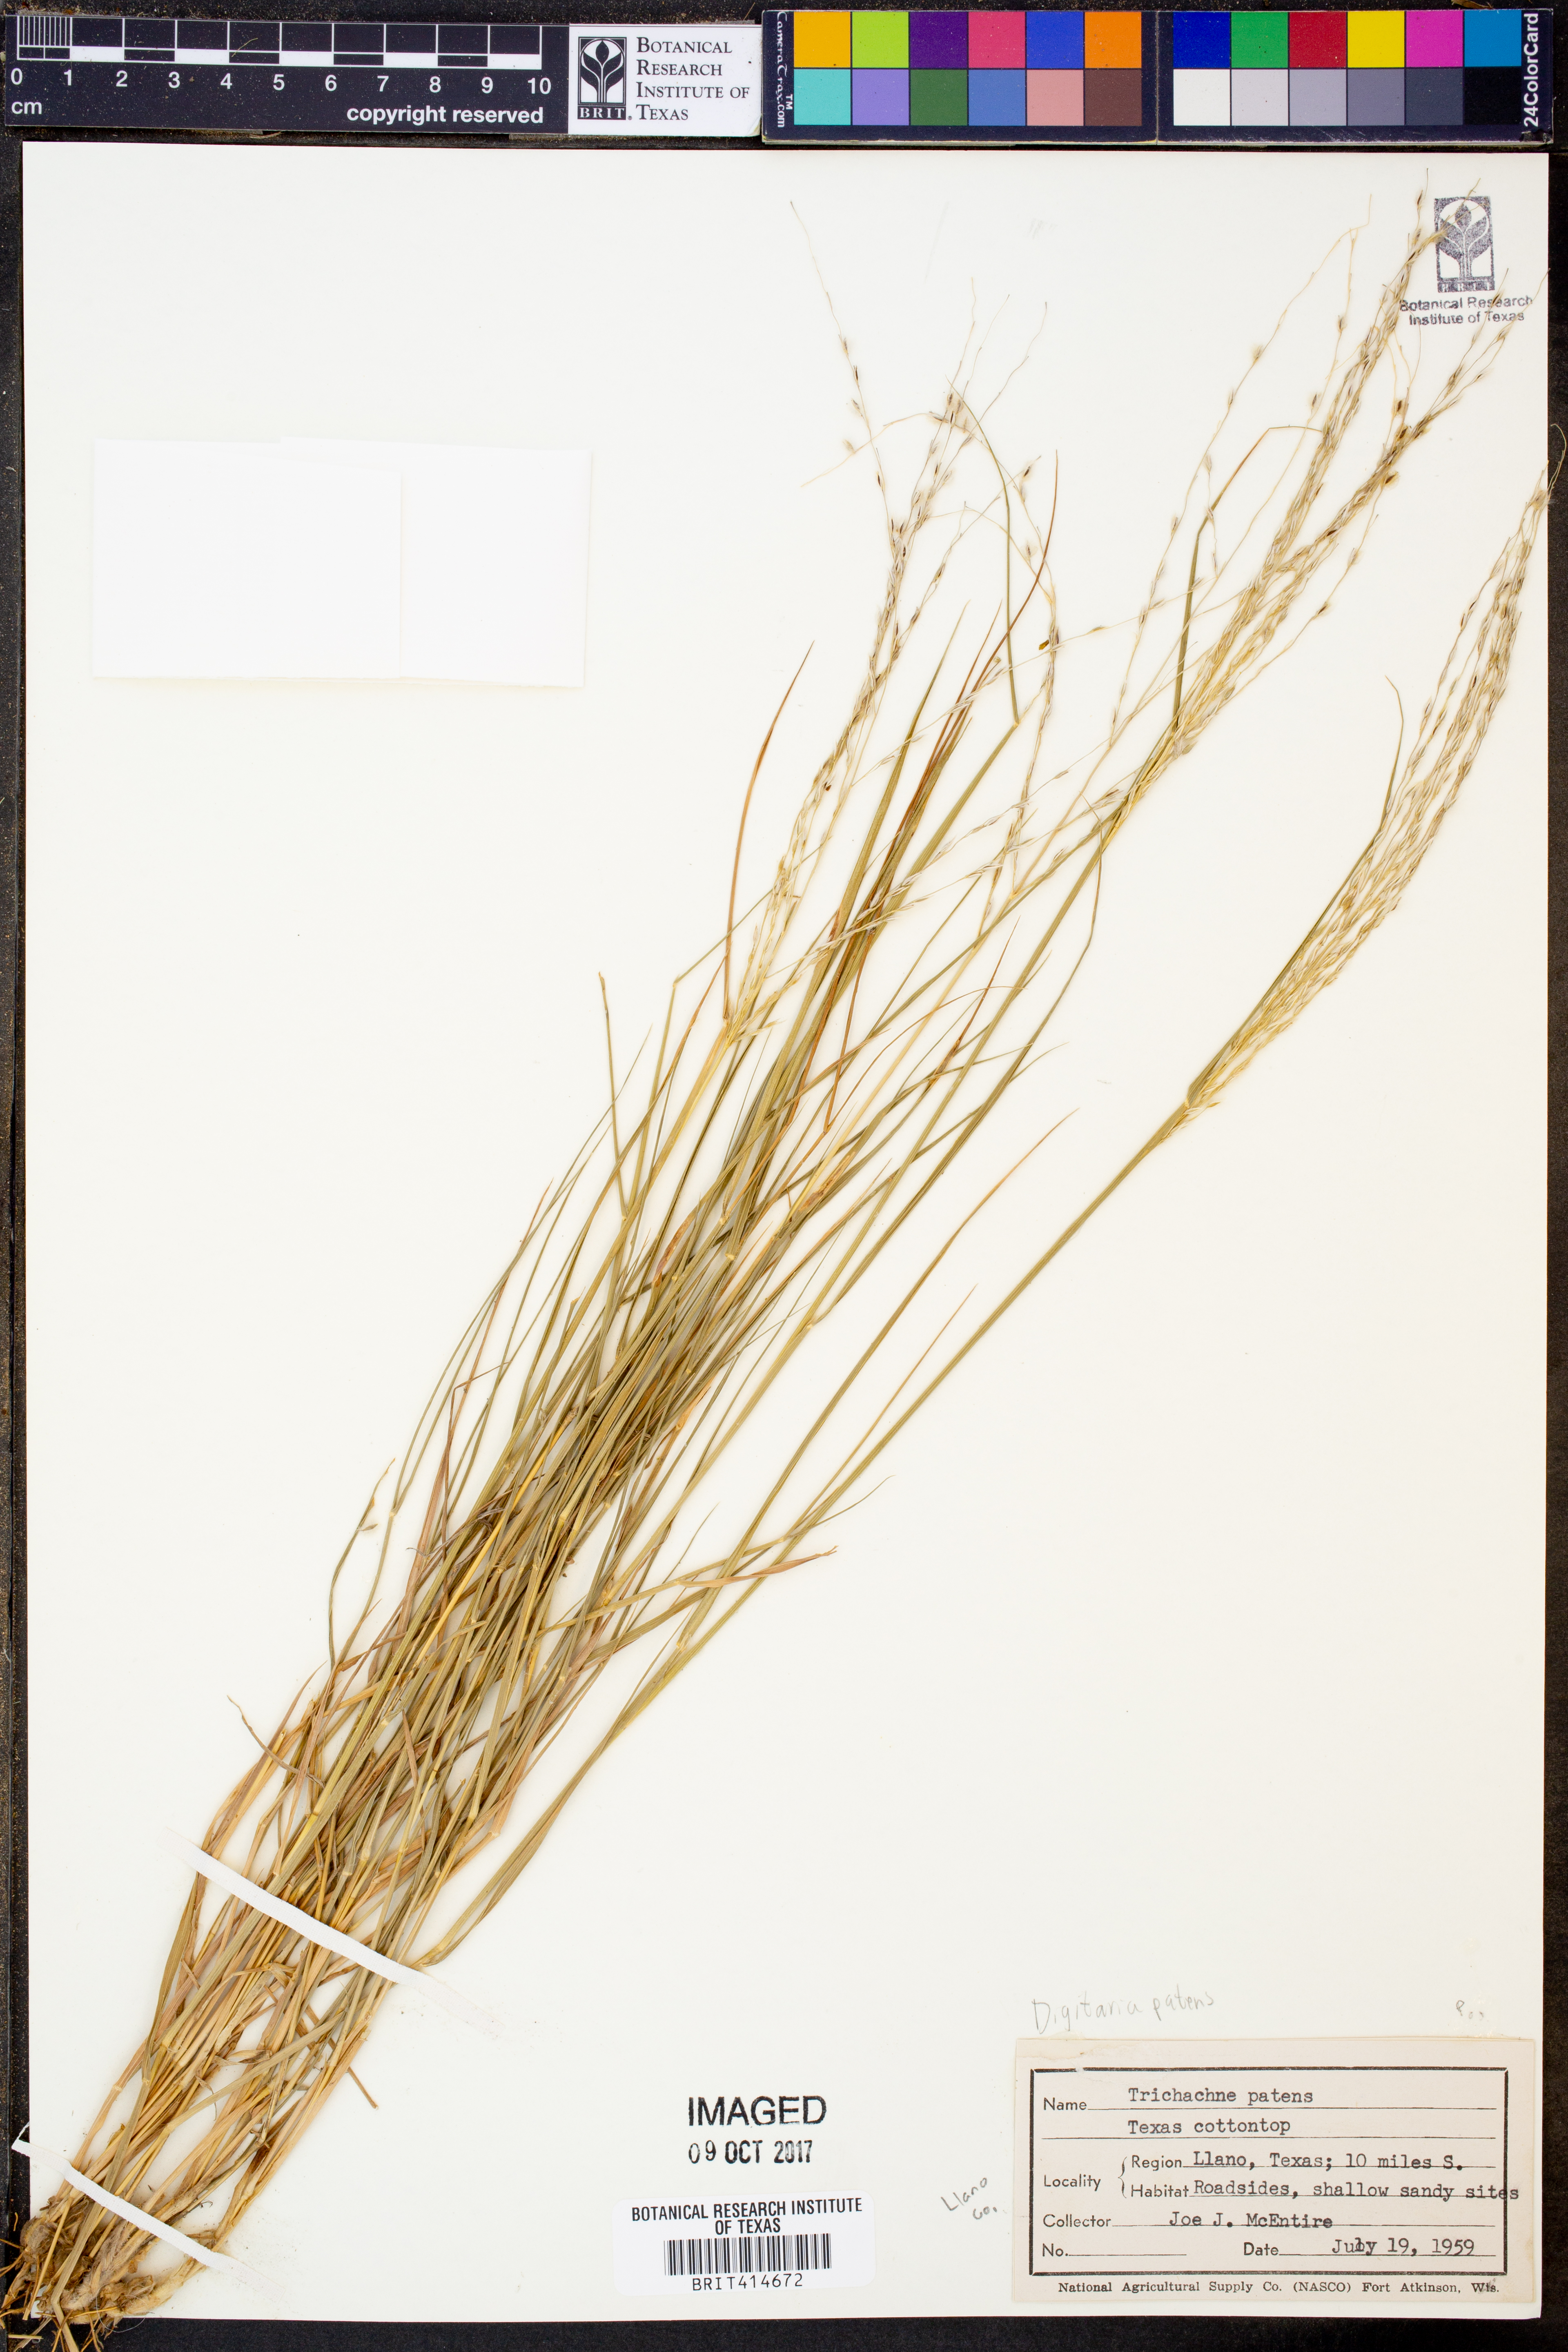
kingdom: Plantae
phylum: Tracheophyta
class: Liliopsida
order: Poales
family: Poaceae
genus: Digitaria
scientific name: Digitaria patens
